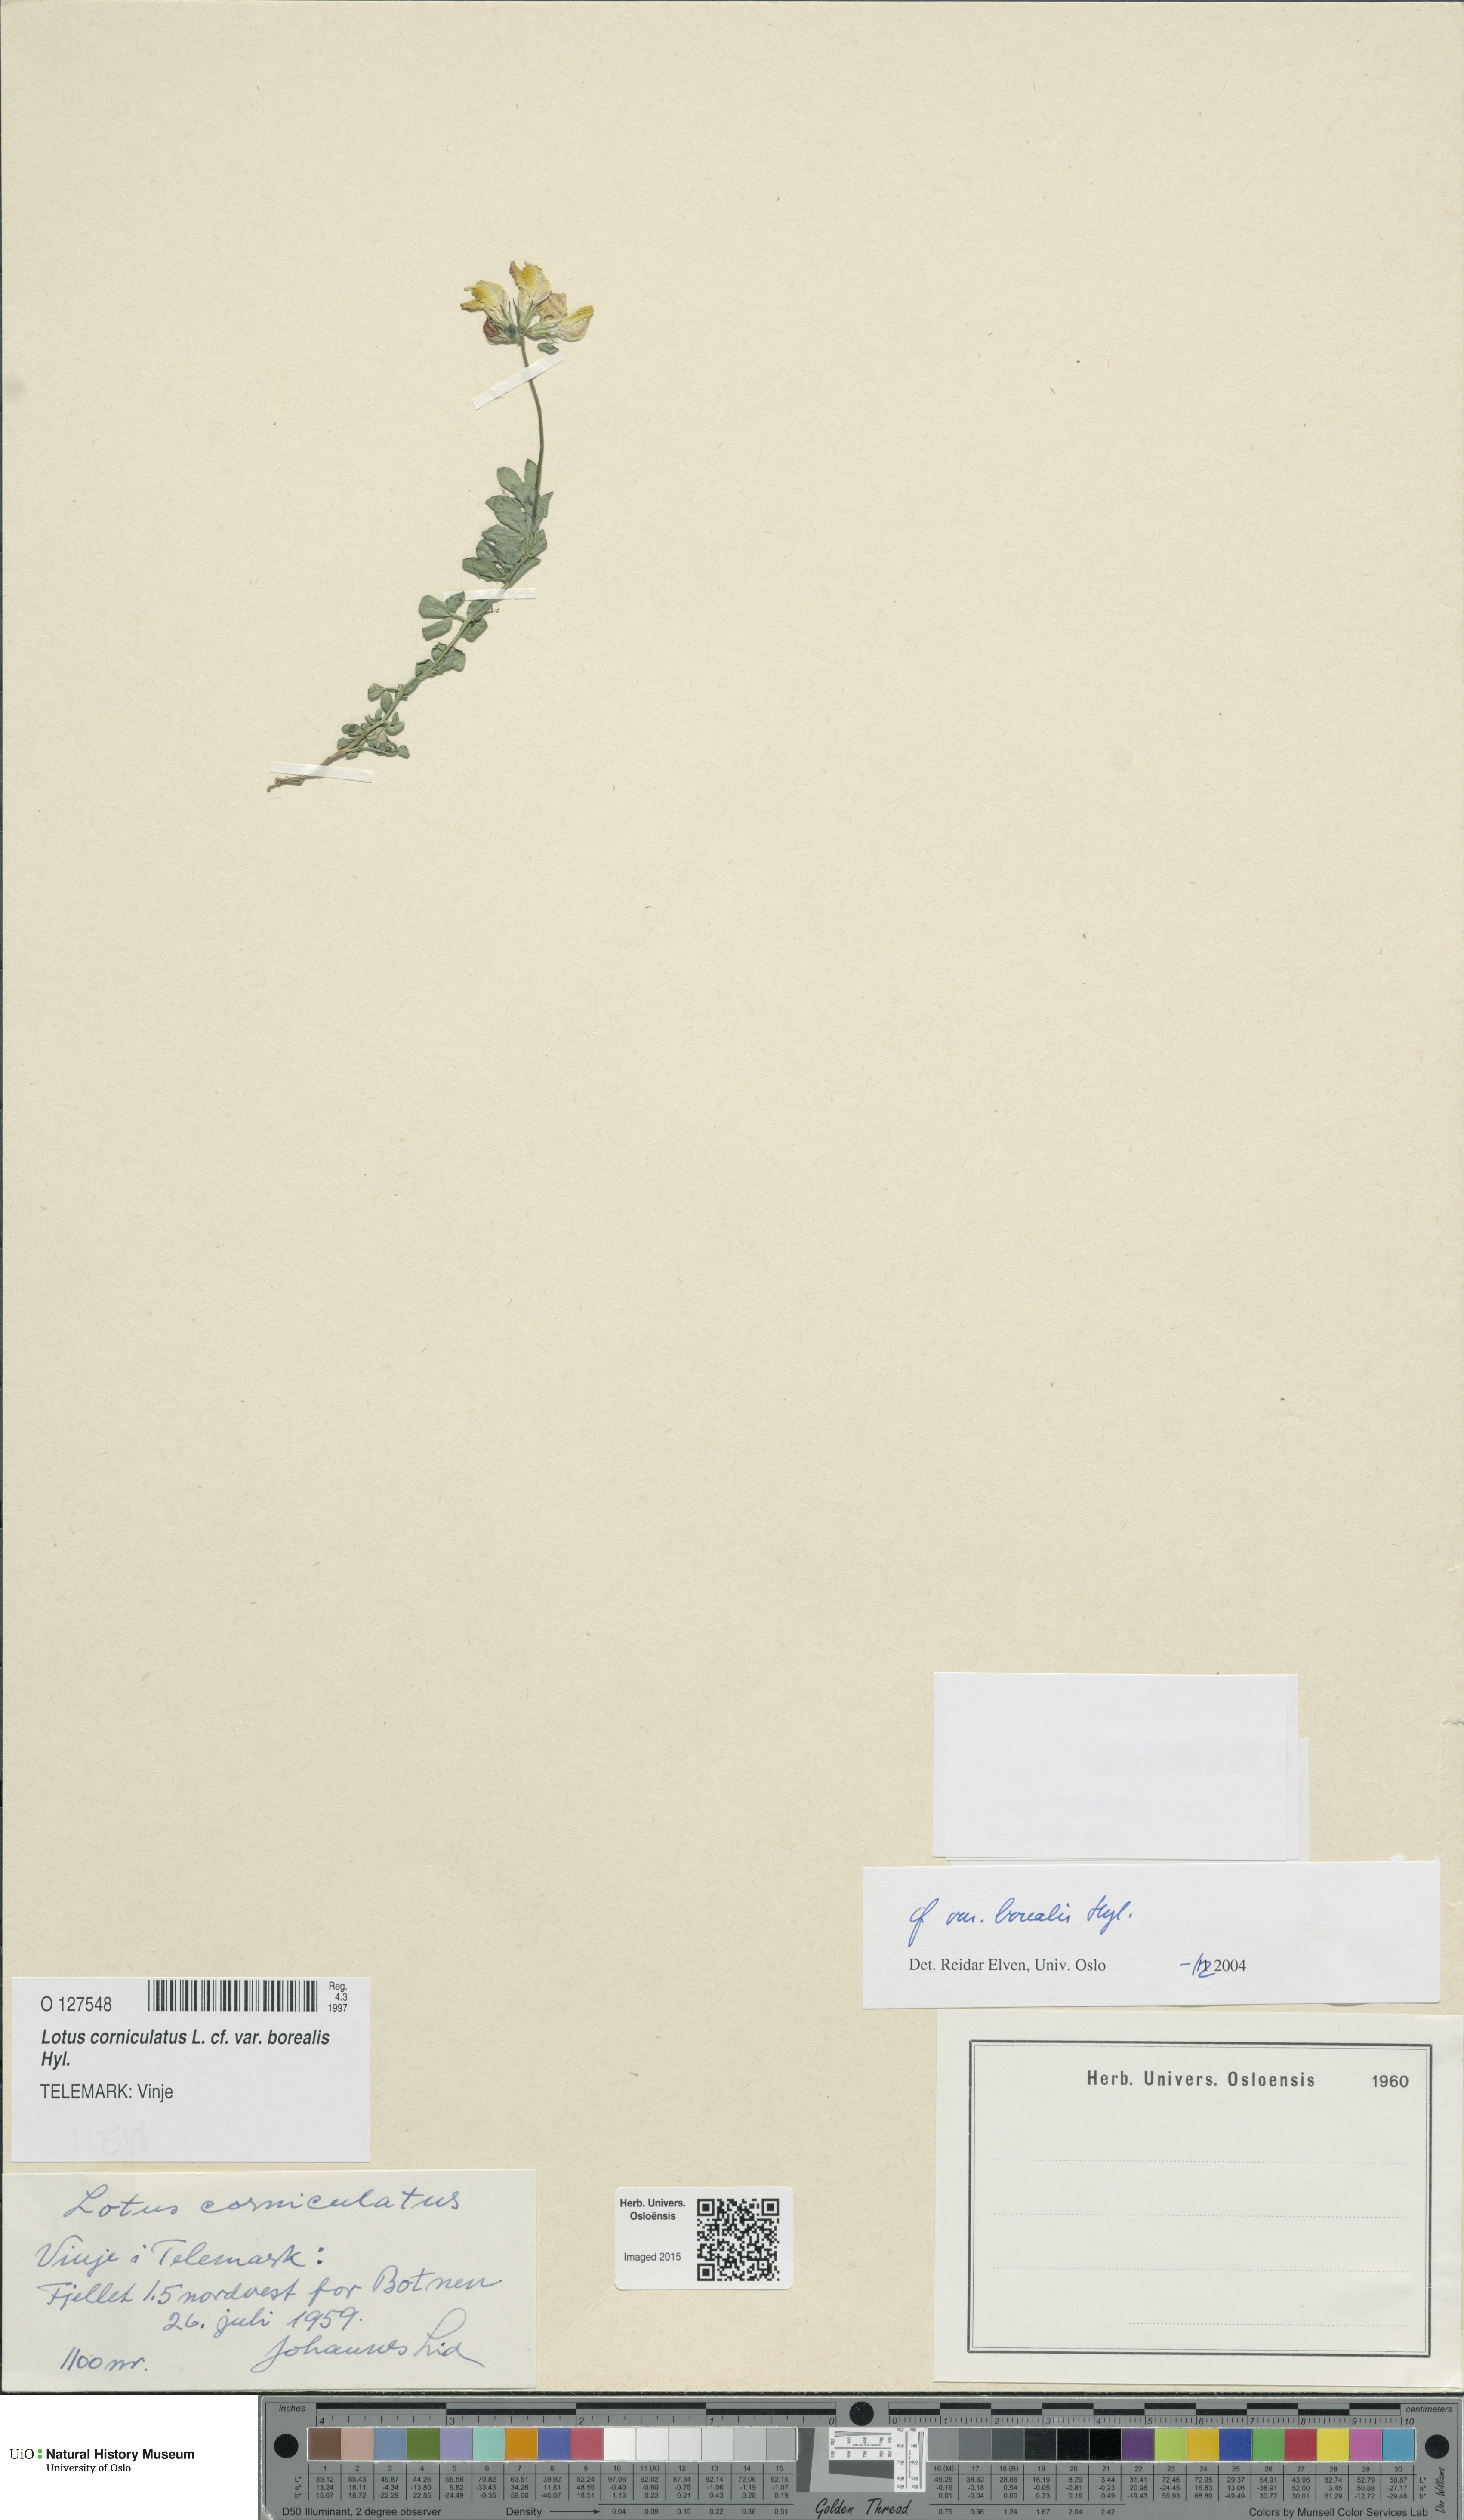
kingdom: Plantae
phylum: Tracheophyta
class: Magnoliopsida
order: Fabales
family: Fabaceae
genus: Lotus
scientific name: Lotus corniculatus
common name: Common bird's-foot-trefoil
